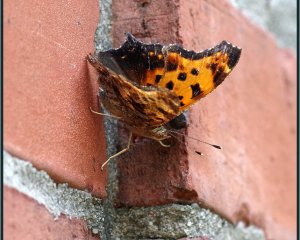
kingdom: Animalia
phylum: Arthropoda
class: Insecta
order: Lepidoptera
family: Nymphalidae
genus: Polygonia
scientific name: Polygonia comma
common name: Eastern Comma
